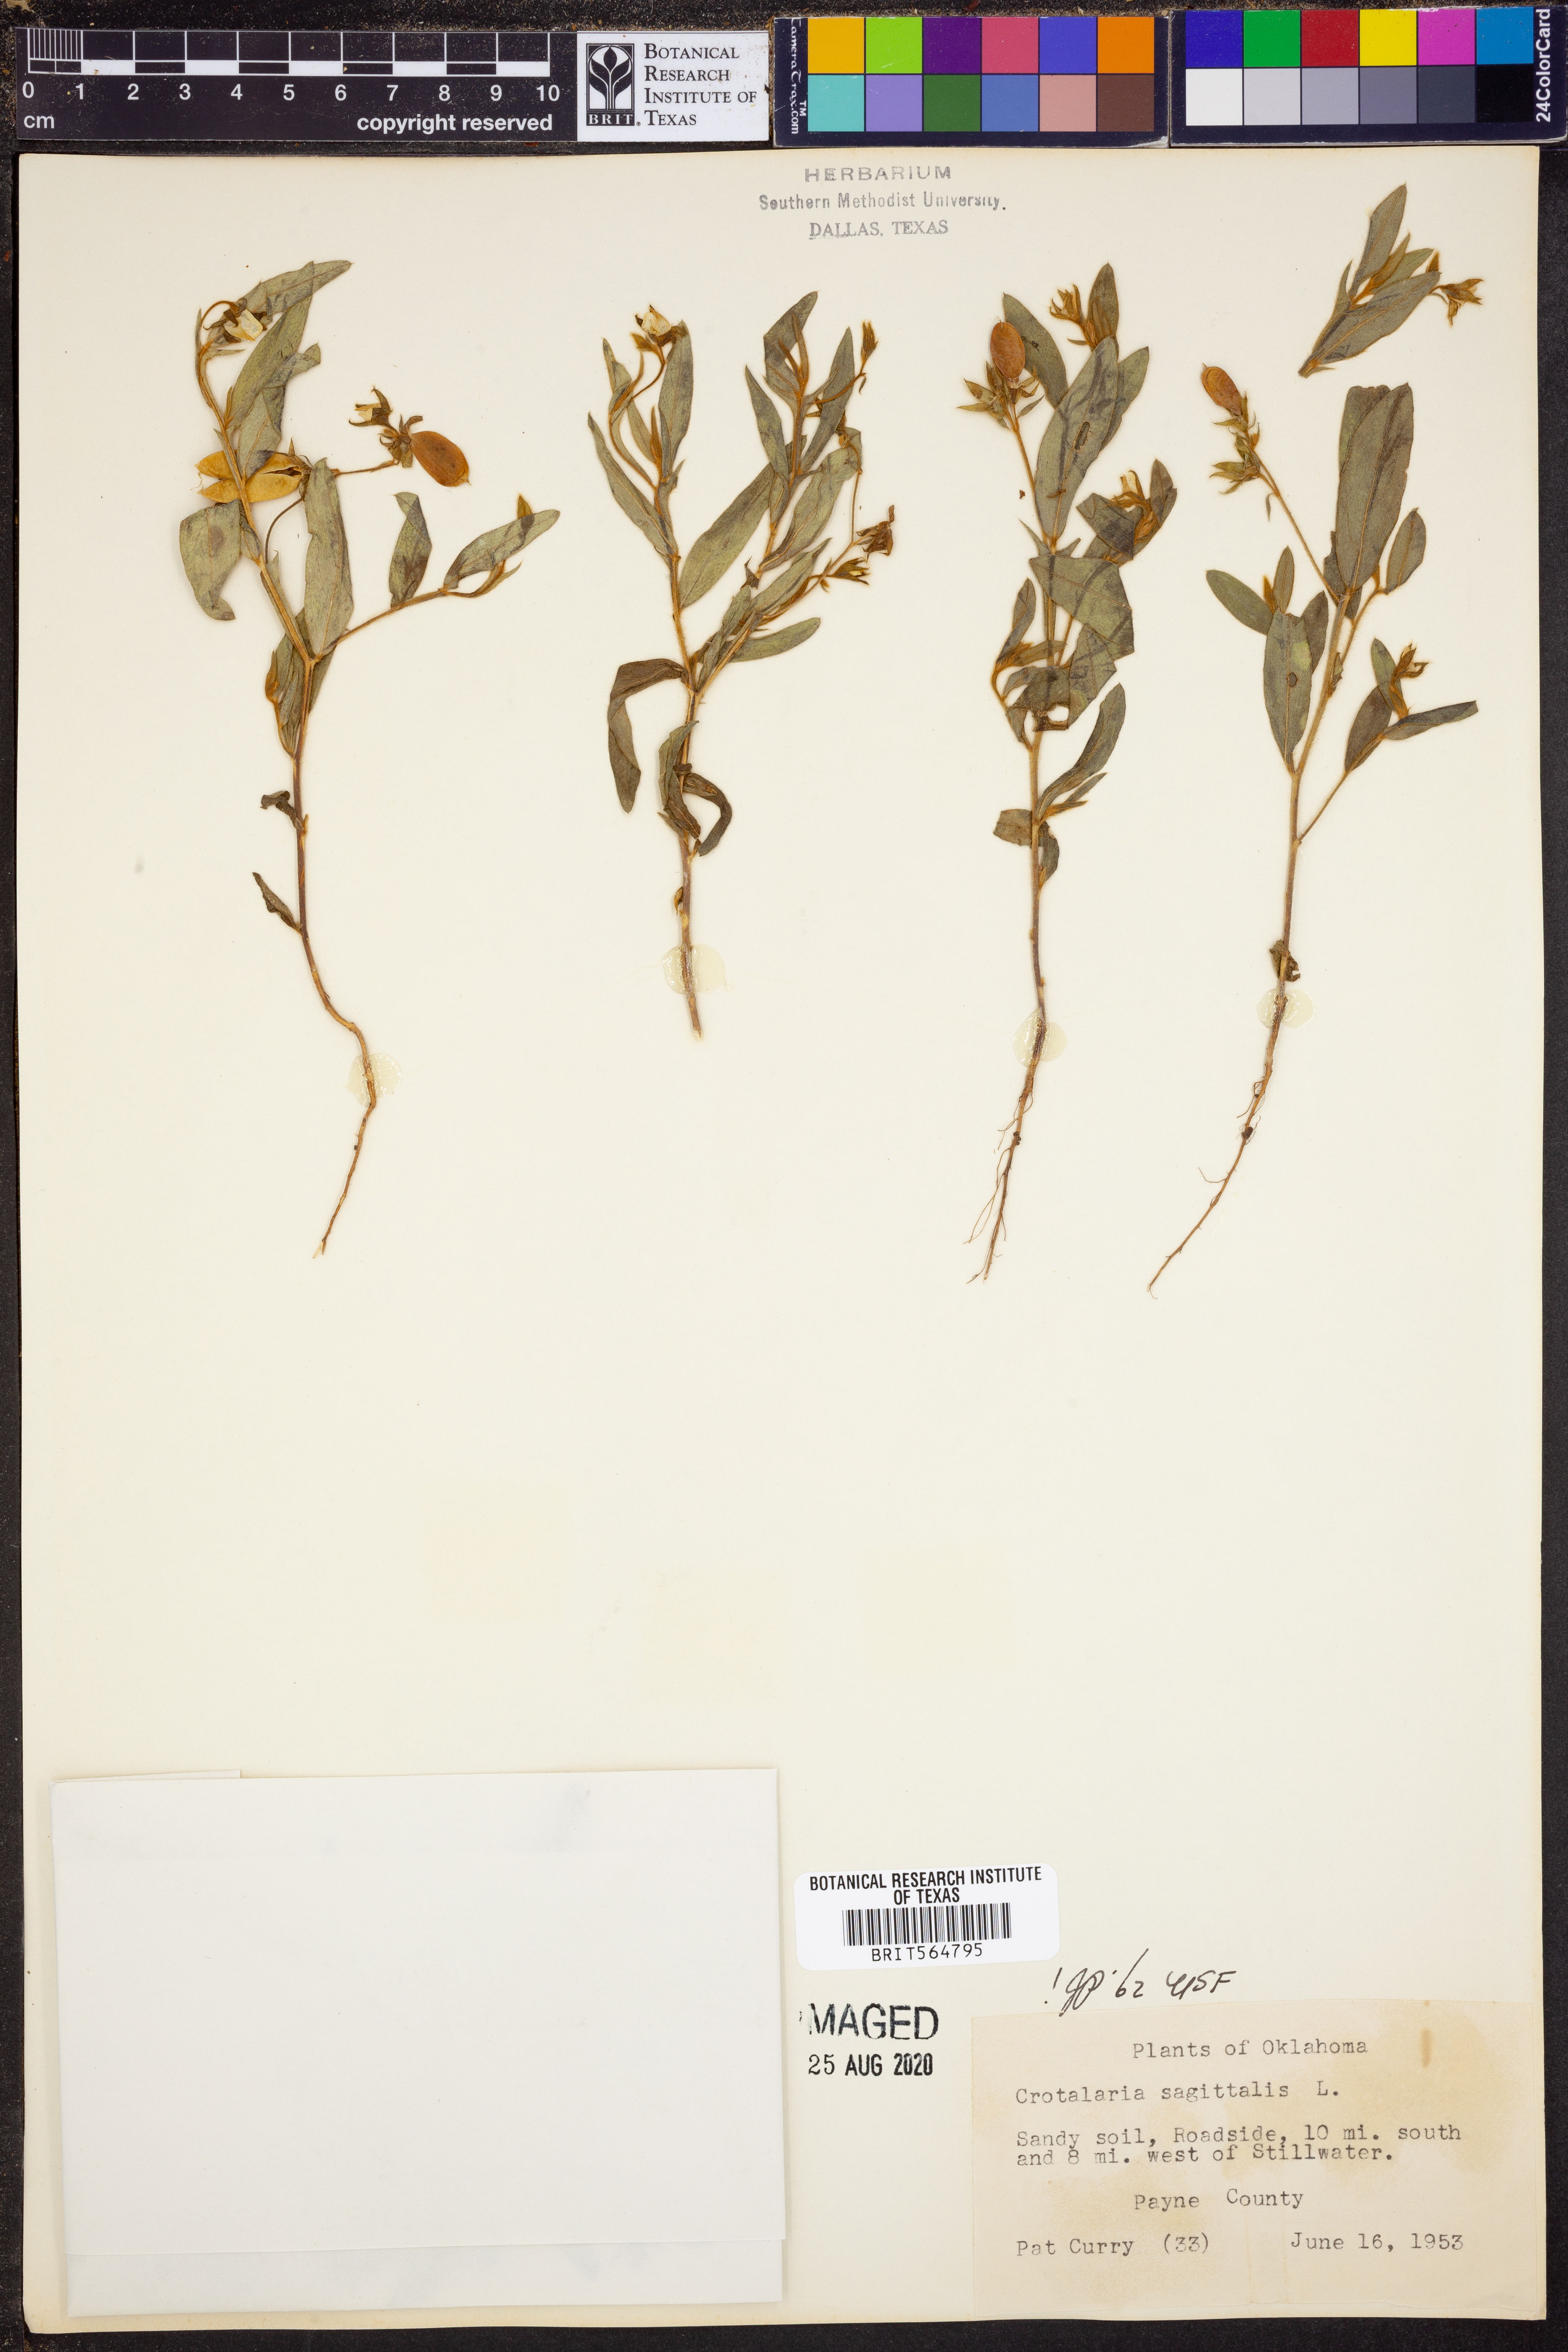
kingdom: Plantae
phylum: Tracheophyta
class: Magnoliopsida
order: Fabales
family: Fabaceae
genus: Crotalaria
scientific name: Crotalaria sagittalis
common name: Arrowhead rattlebox
